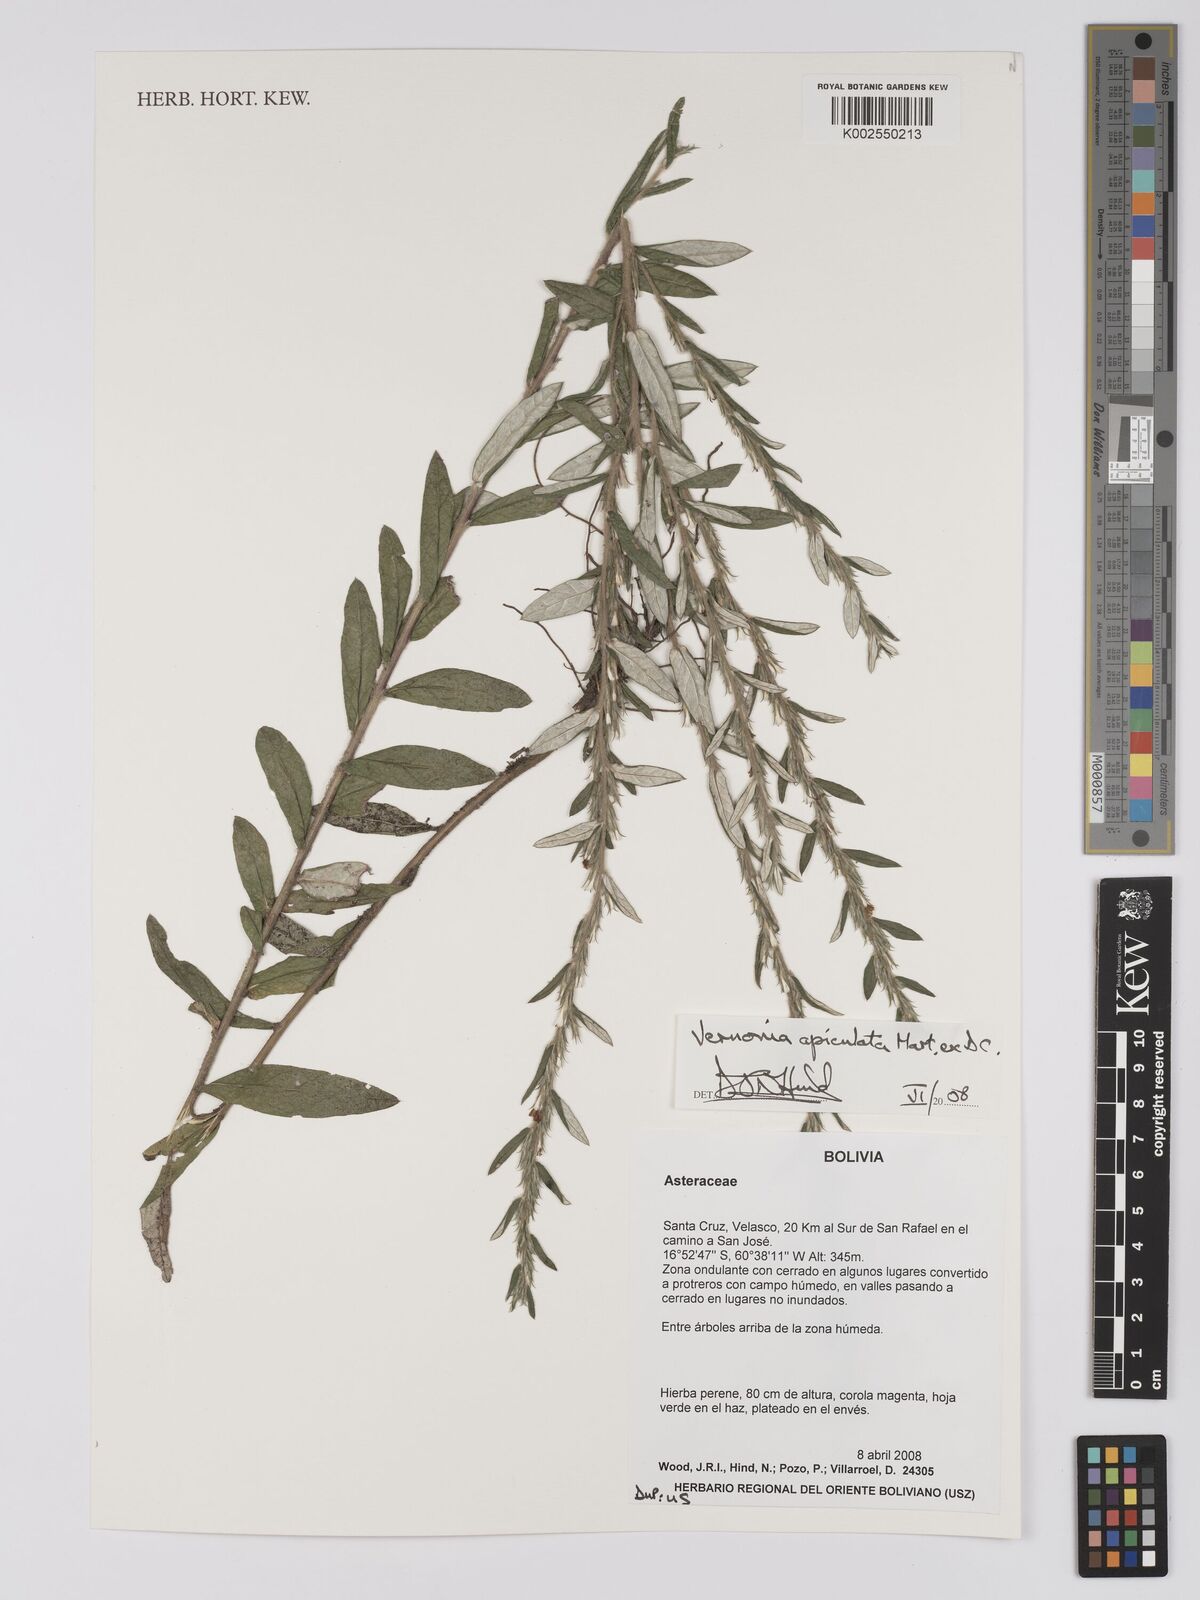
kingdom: Plantae
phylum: Tracheophyta
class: Magnoliopsida
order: Asterales
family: Asteraceae
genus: Stenocephalum
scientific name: Stenocephalum apiculatum
